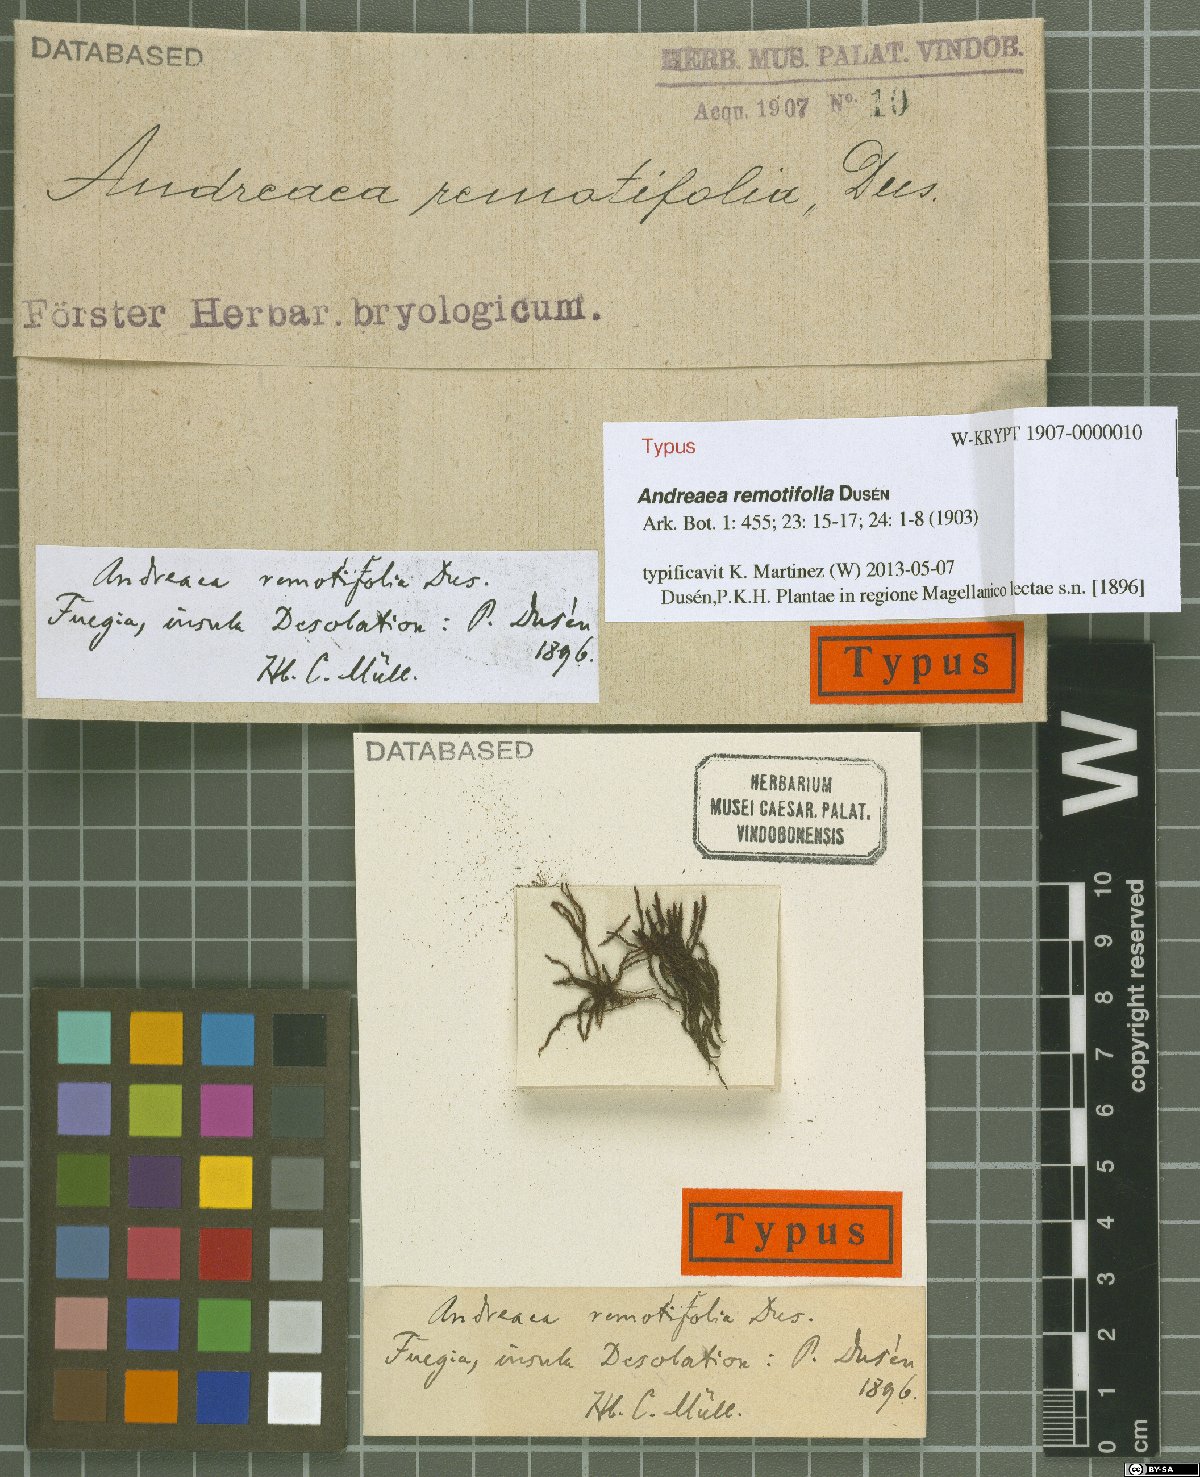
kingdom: Plantae
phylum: Bryophyta
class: Andreaeopsida
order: Andreaeales
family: Andreaeaceae
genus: Andreaea
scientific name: Andreaea remotifolia
